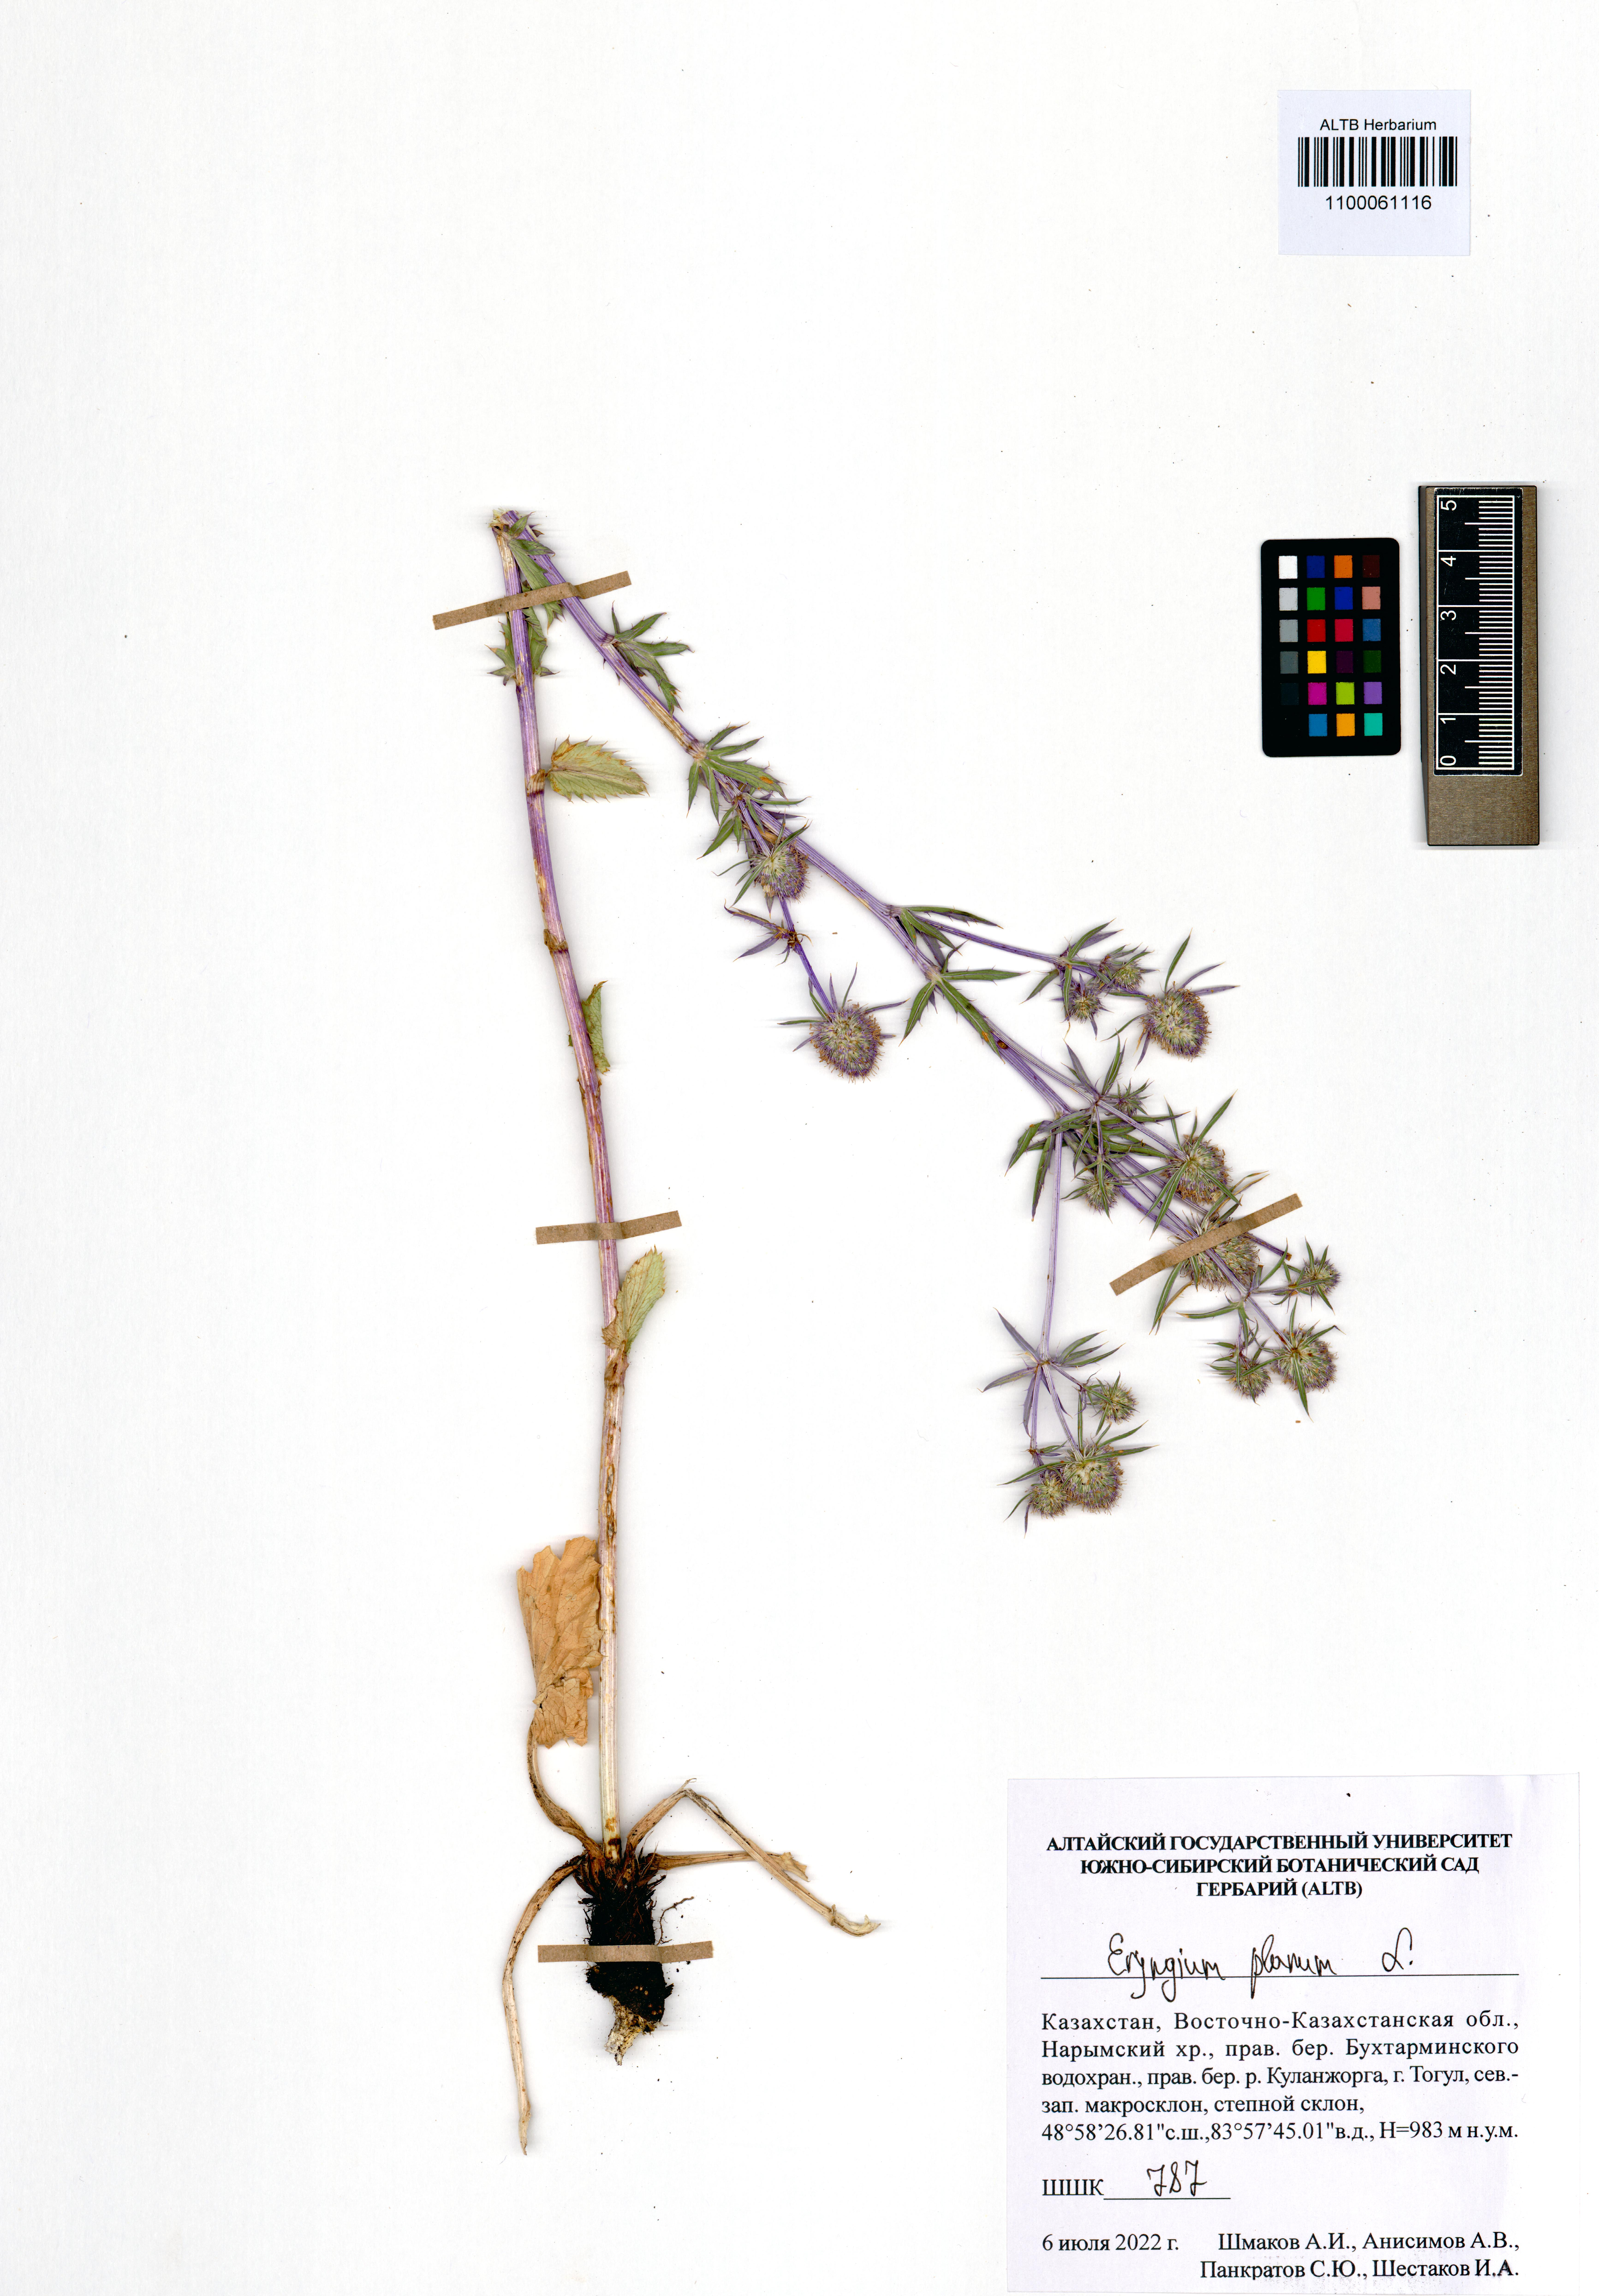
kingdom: Plantae
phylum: Tracheophyta
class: Magnoliopsida
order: Apiales
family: Apiaceae
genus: Eryngium
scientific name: Eryngium planum
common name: Blue eryngo
